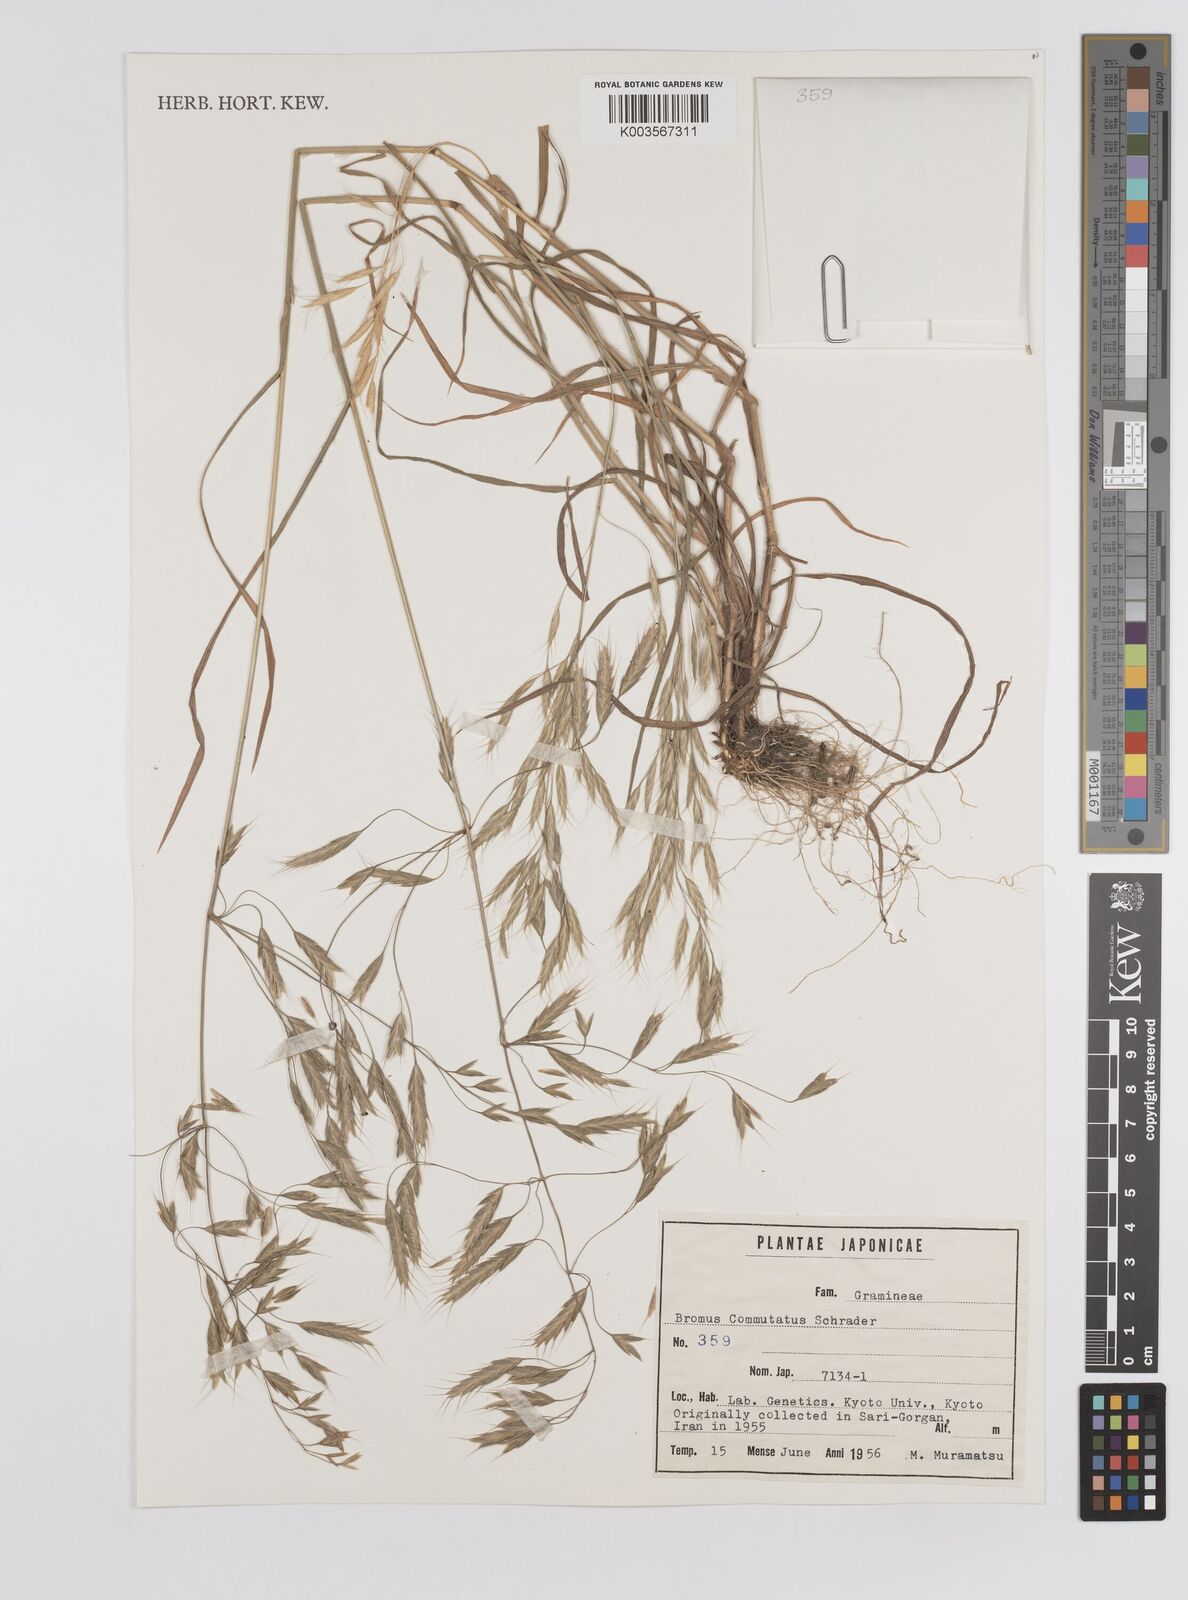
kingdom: Plantae
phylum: Tracheophyta
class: Liliopsida
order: Poales
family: Poaceae
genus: Bromus
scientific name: Bromus racemosus
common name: Bald brome
